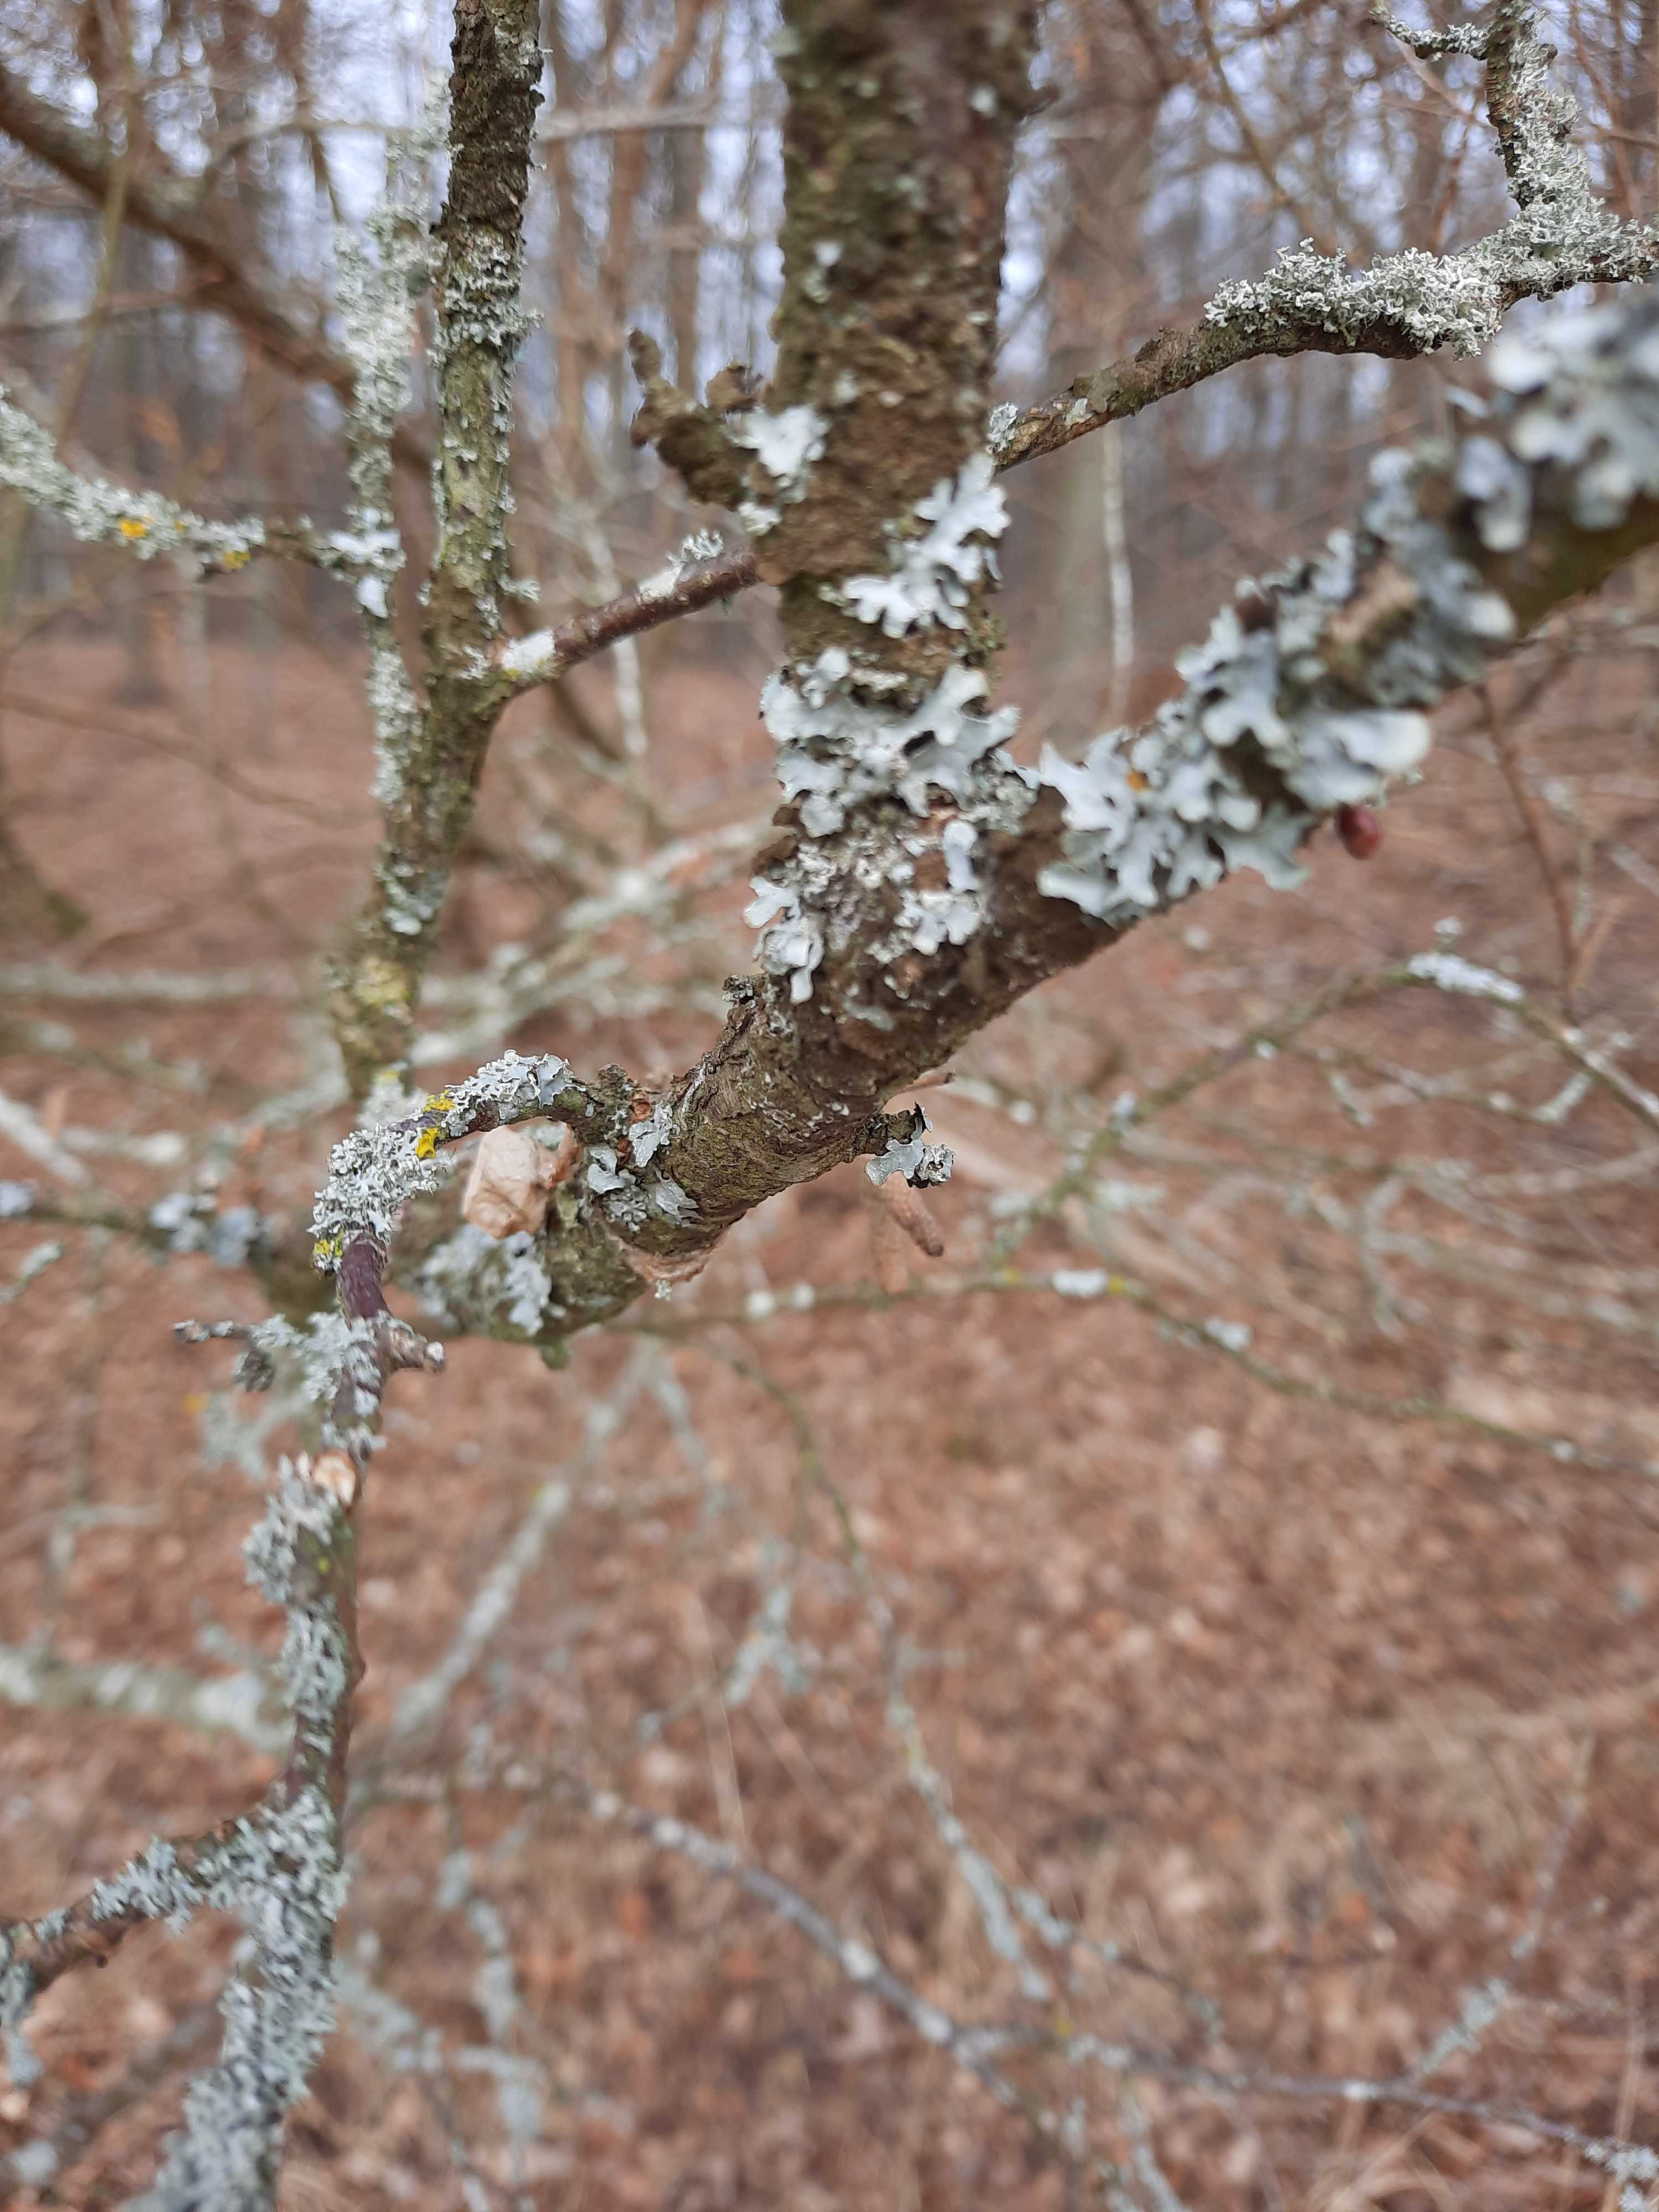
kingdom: Fungi
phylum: Ascomycota
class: Lecanoromycetes
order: Lecanorales
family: Parmeliaceae
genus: Parmelia
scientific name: Parmelia sulcata
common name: rynket skållav
